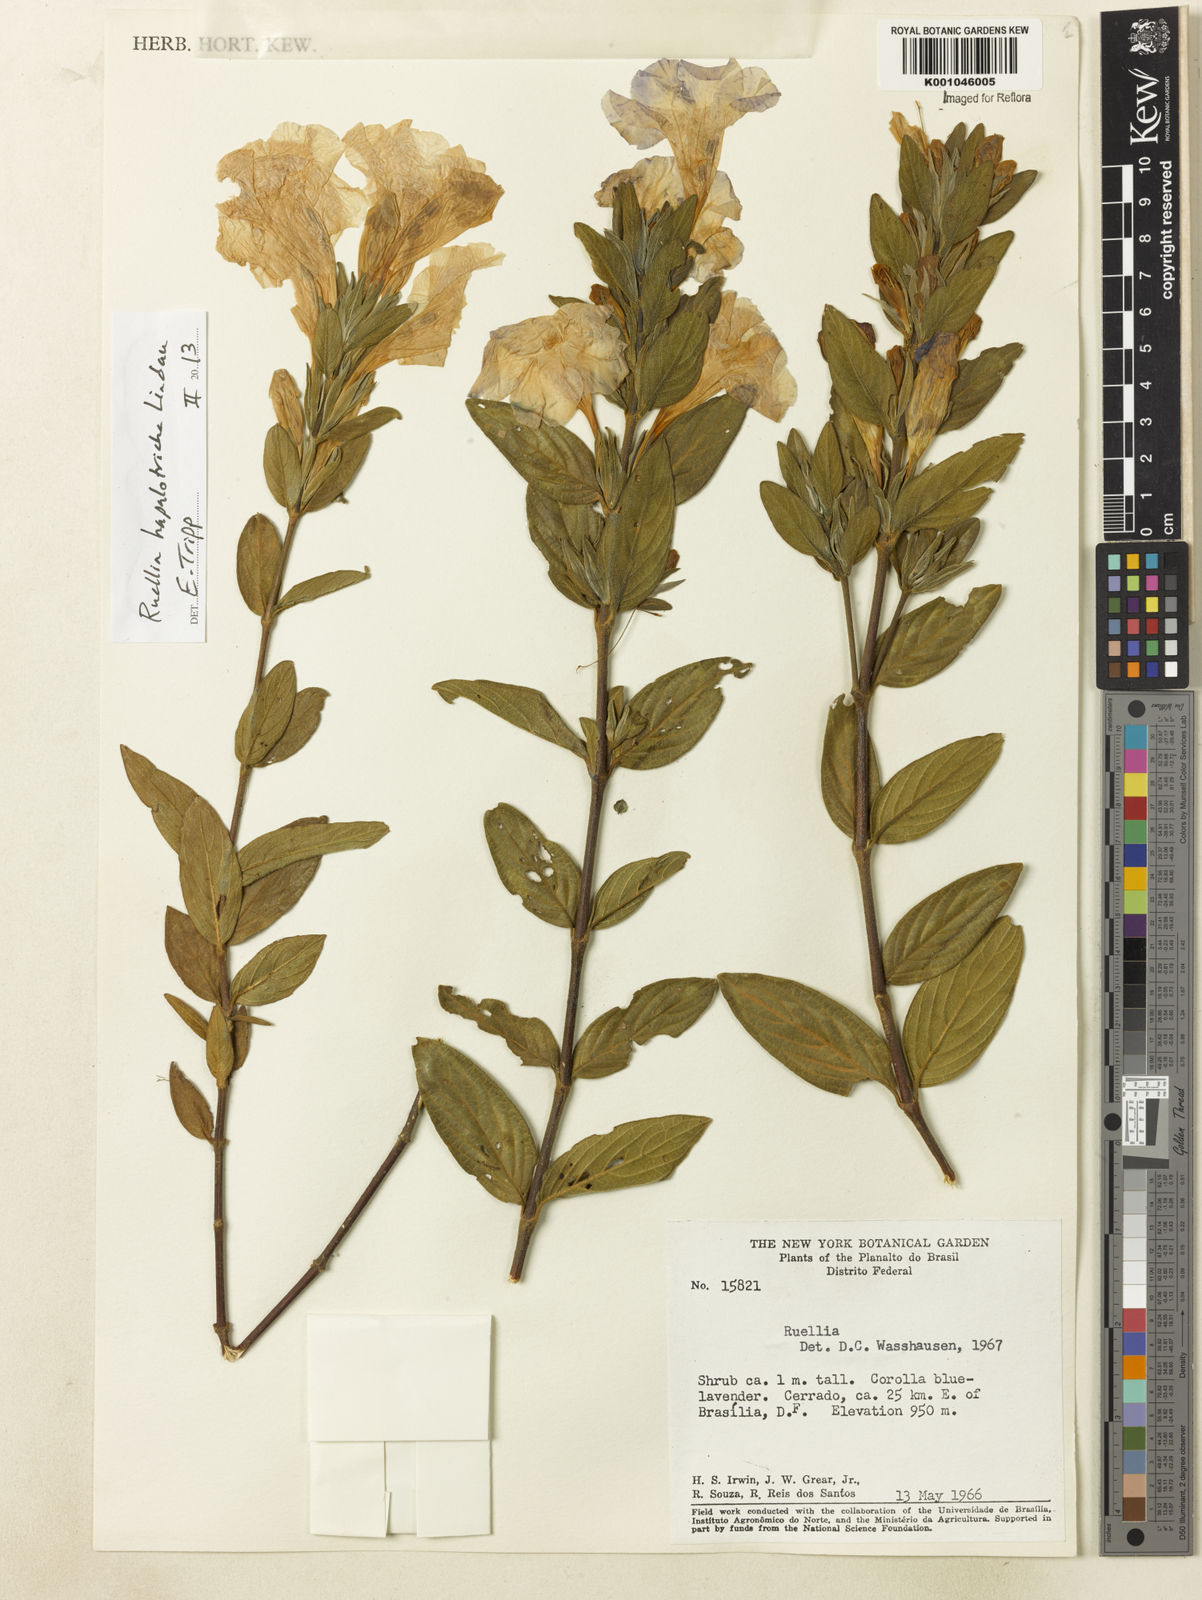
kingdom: Plantae
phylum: Tracheophyta
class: Magnoliopsida
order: Lamiales
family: Acanthaceae
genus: Ruellia
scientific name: Ruellia hapalotricha
